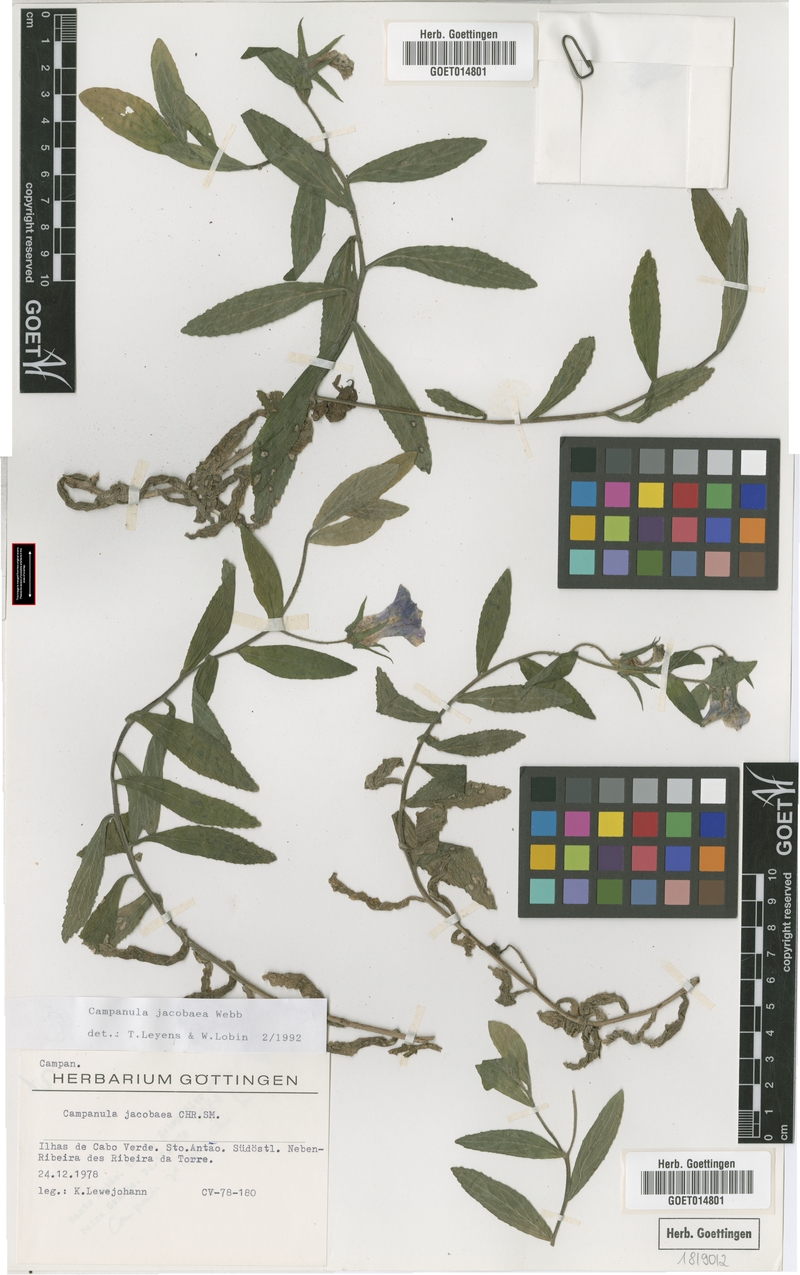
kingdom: Plantae
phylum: Tracheophyta
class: Magnoliopsida
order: Asterales
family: Campanulaceae
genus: Campanula
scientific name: Campanula jacobaea
